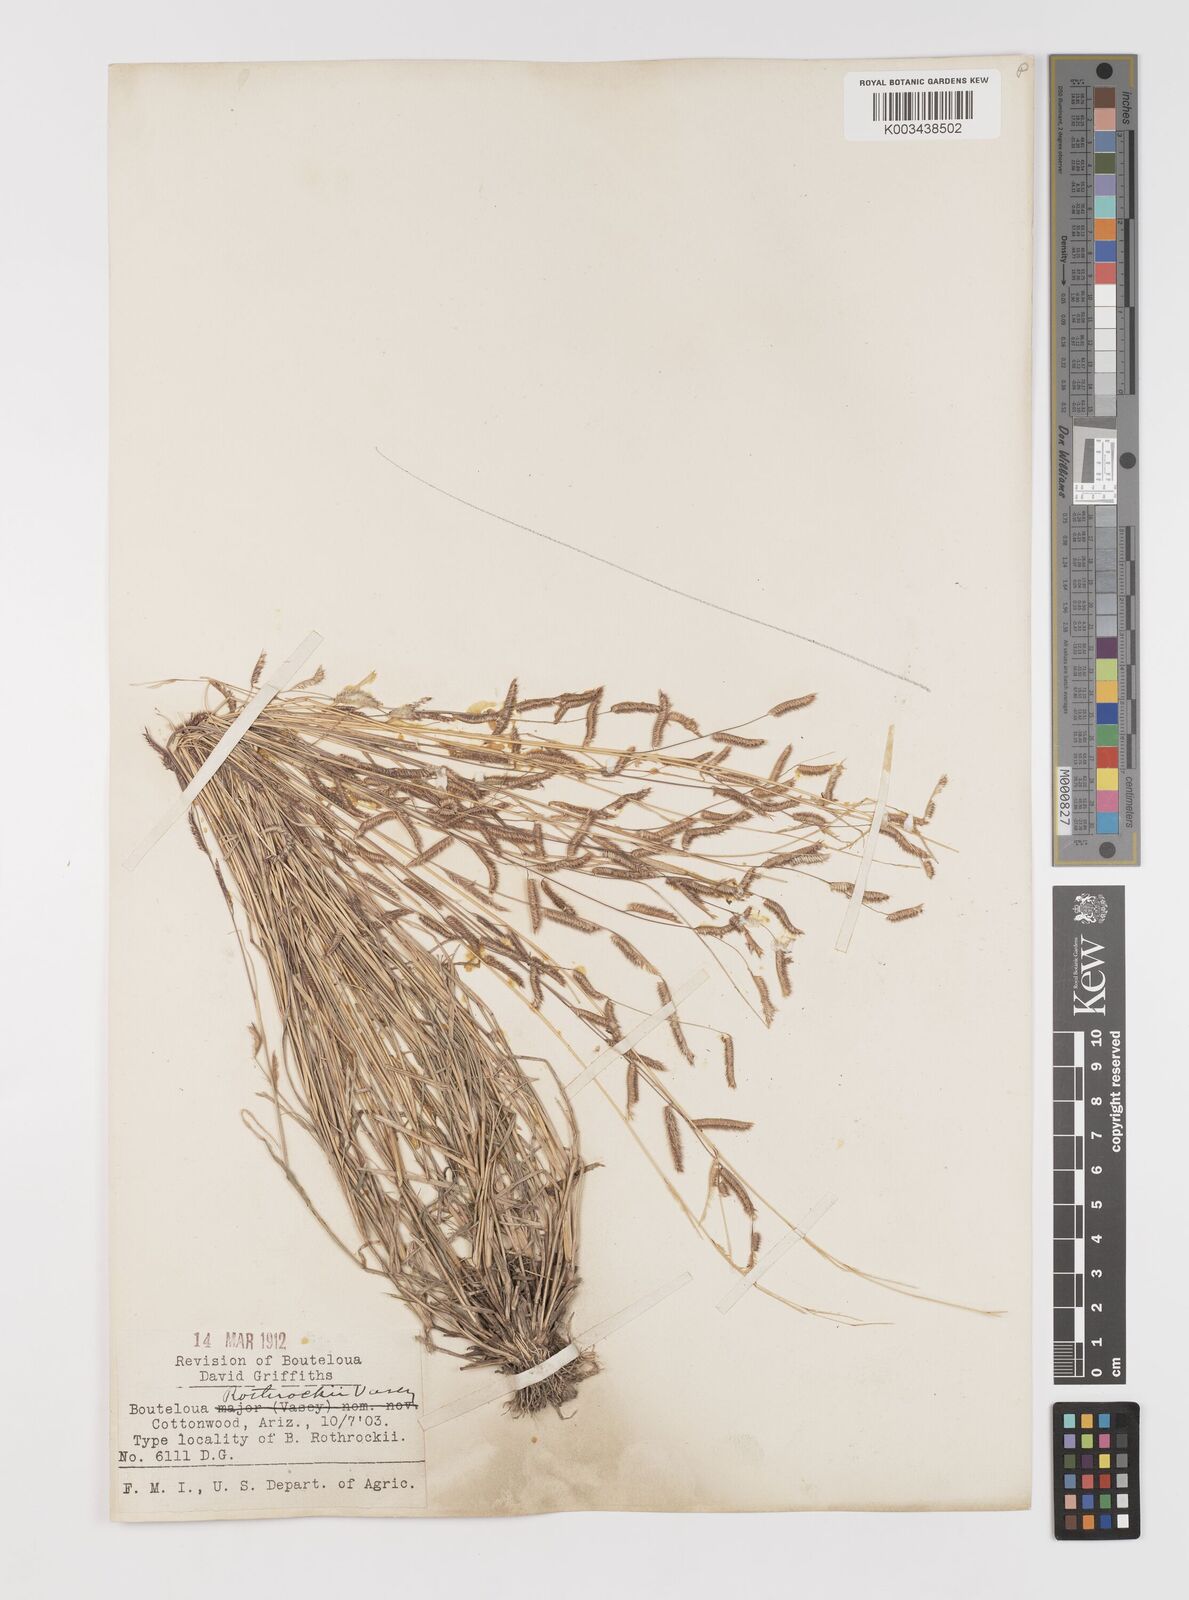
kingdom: Plantae
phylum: Tracheophyta
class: Liliopsida
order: Poales
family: Poaceae
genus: Bouteloua
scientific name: Bouteloua
